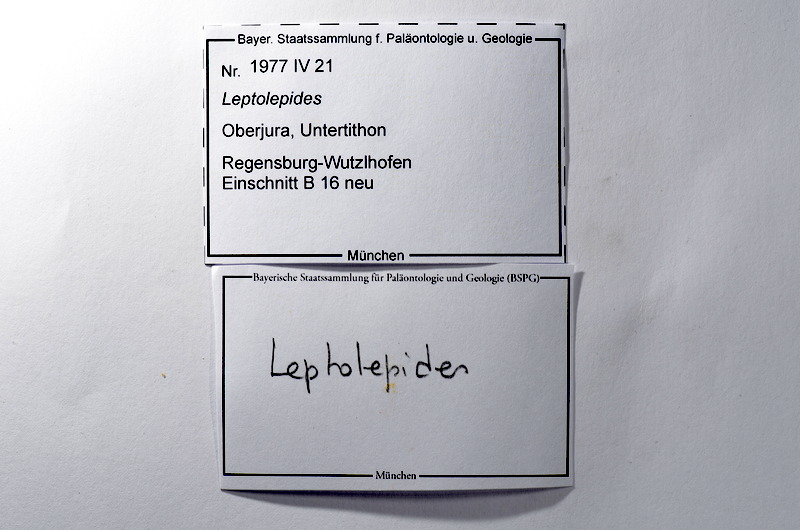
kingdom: Animalia
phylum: Chordata
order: Salmoniformes
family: Orthogonikleithridae
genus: Leptolepides
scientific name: Leptolepides
